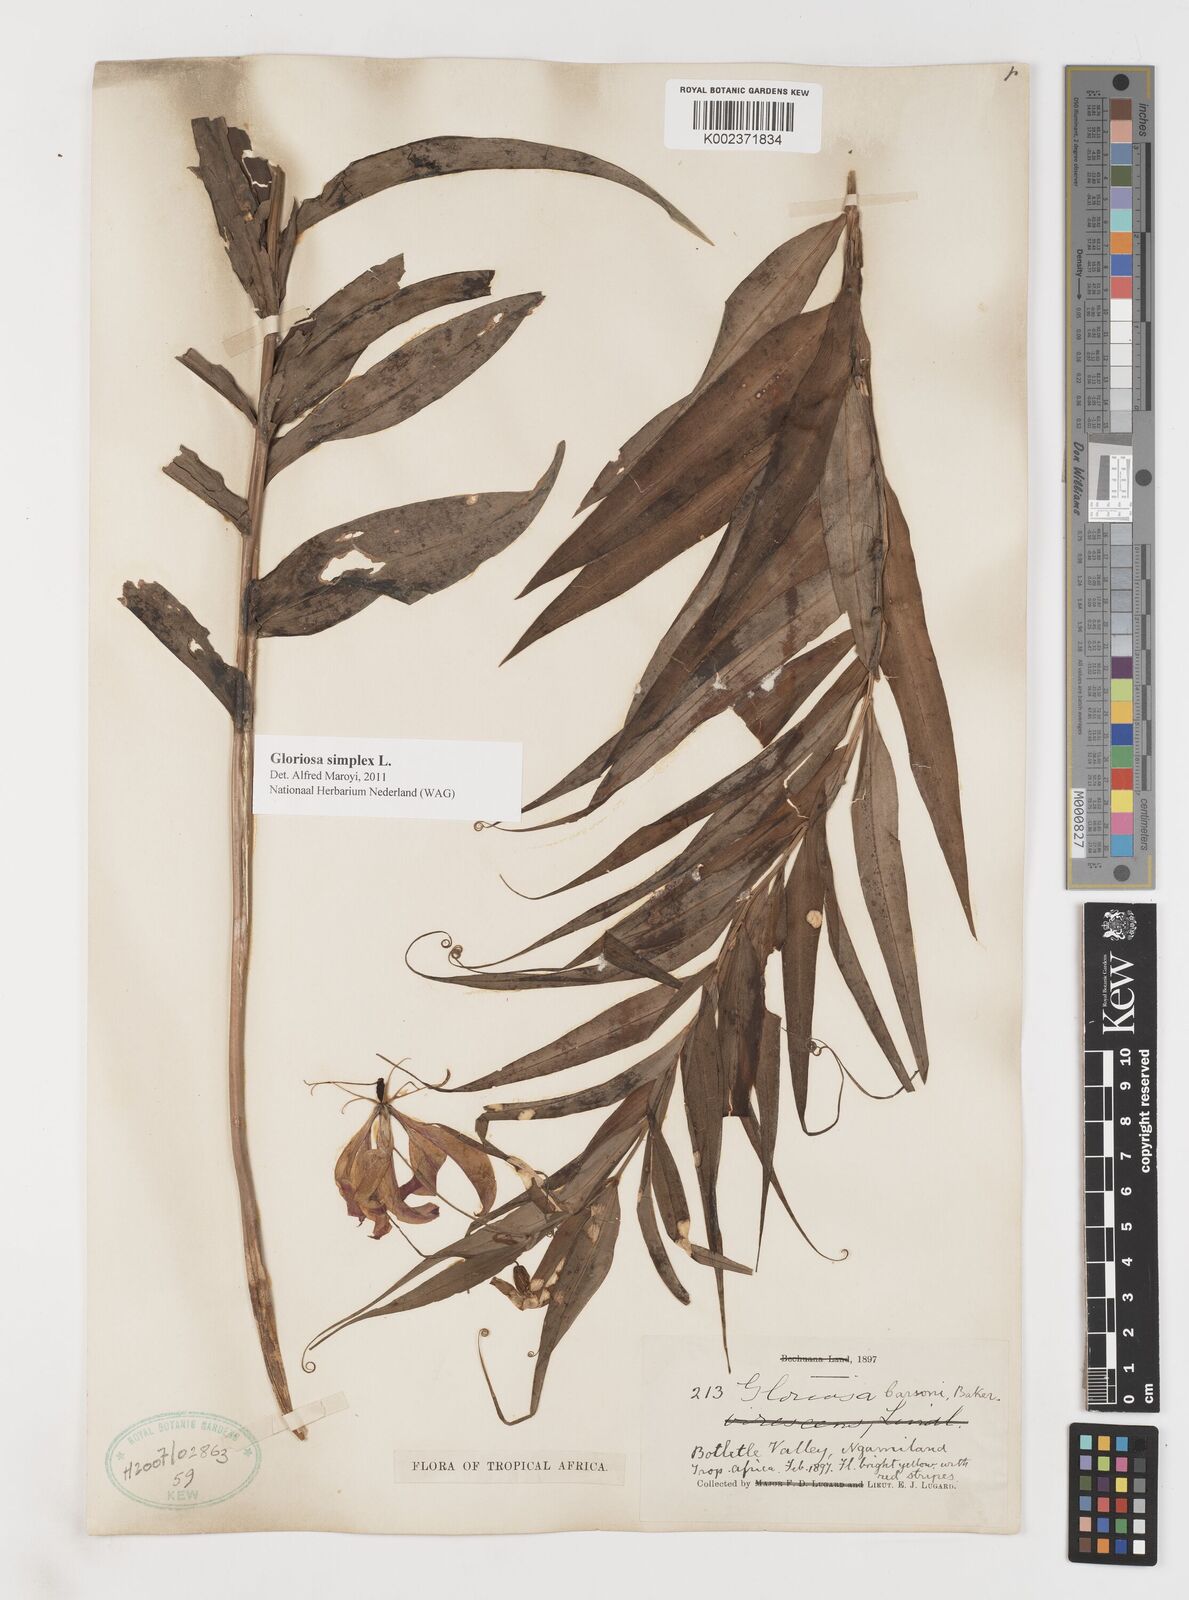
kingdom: Plantae
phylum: Tracheophyta
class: Liliopsida
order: Liliales
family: Colchicaceae
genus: Gloriosa
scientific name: Gloriosa simplex
